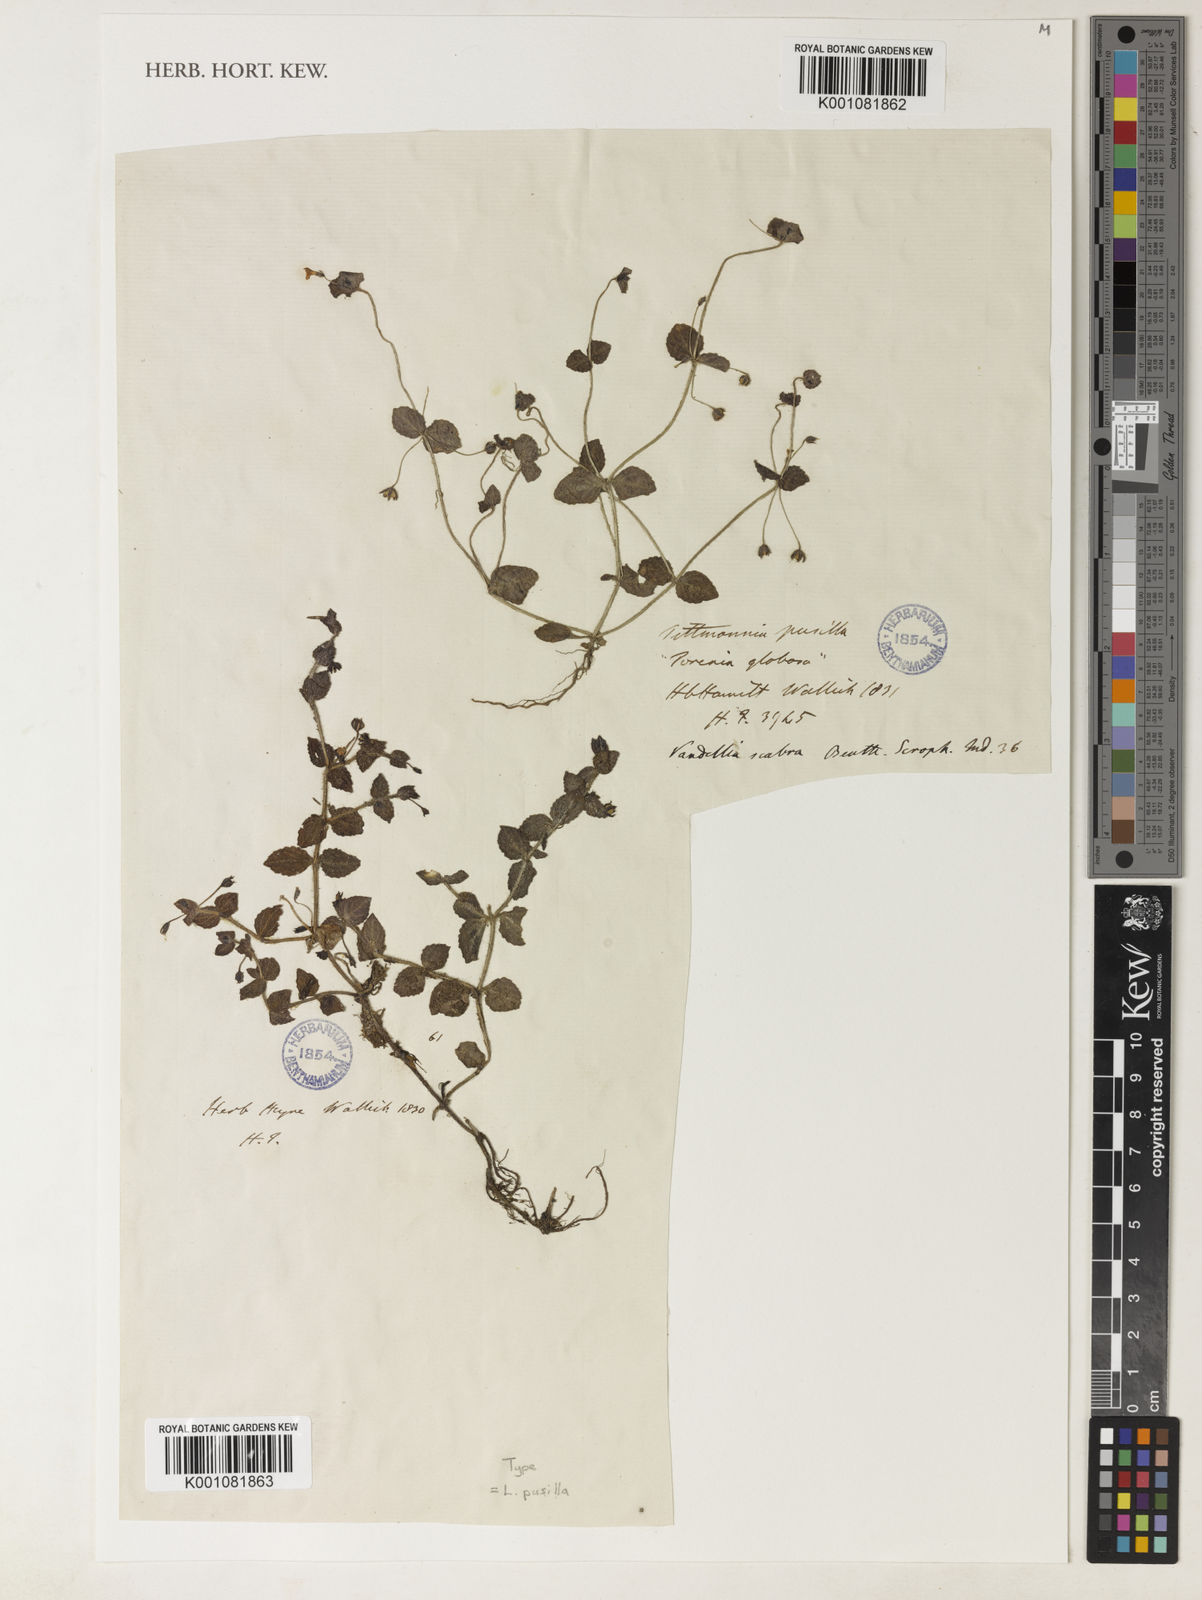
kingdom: Plantae
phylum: Tracheophyta
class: Magnoliopsida
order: Lamiales
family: Linderniaceae
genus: Yamazakia
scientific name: Yamazakia pusilla
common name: Tiny slitwort
